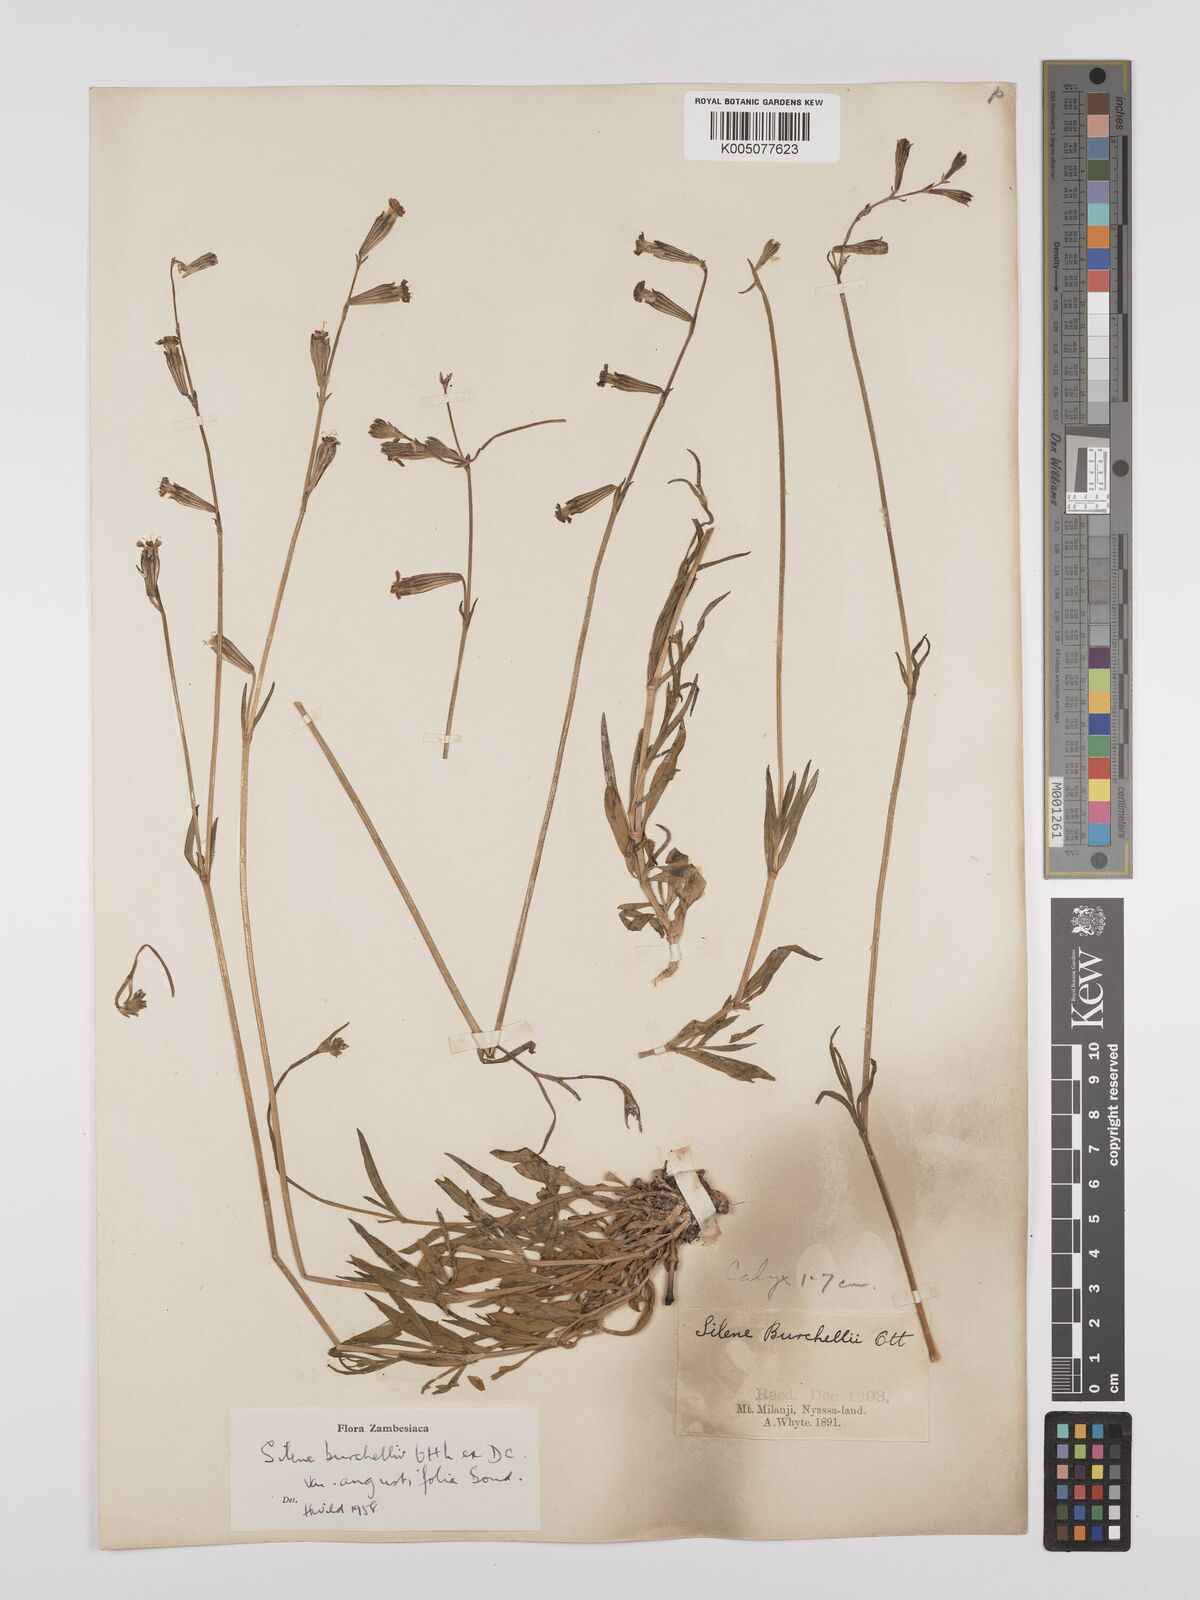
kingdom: Plantae
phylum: Tracheophyta
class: Magnoliopsida
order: Caryophyllales
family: Caryophyllaceae
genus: Silene
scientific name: Silene burchellii
